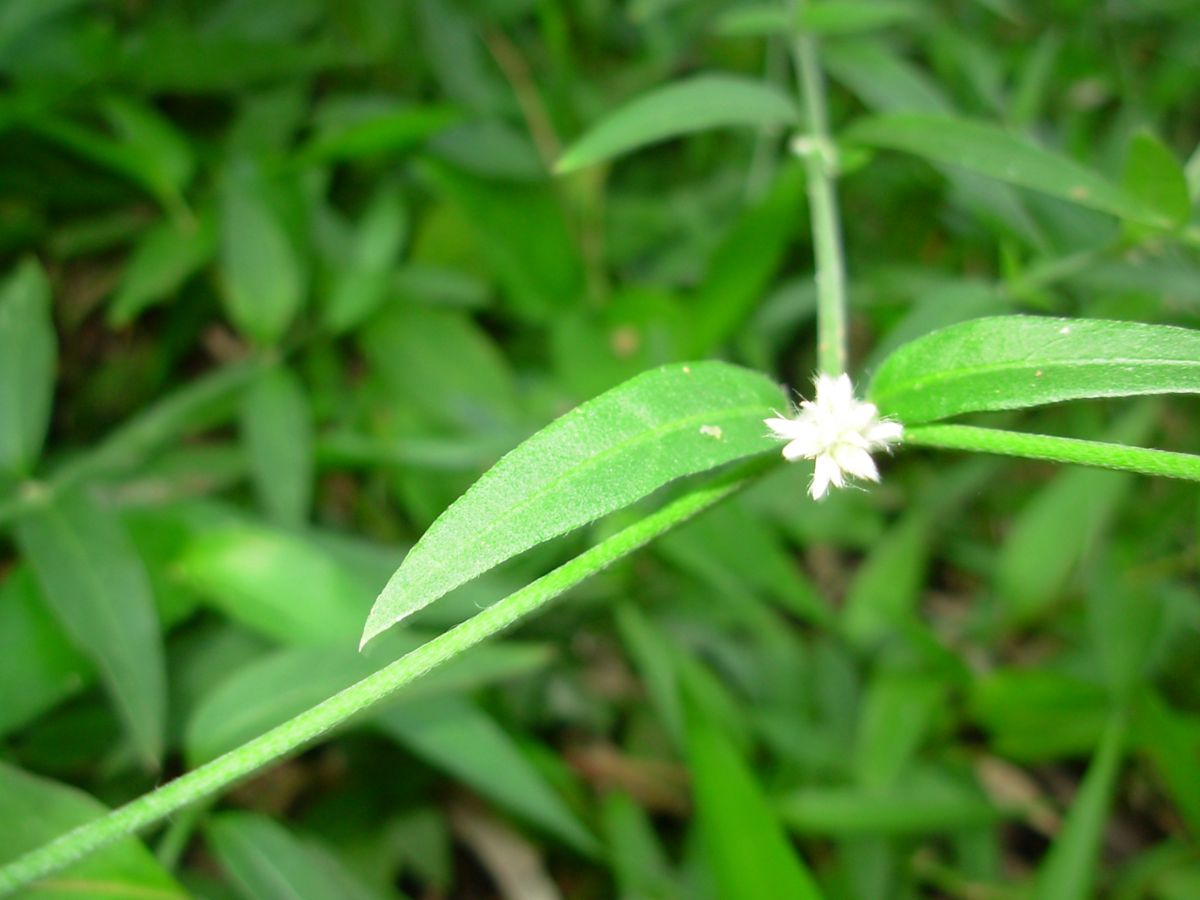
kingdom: Plantae
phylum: Tracheophyta
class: Magnoliopsida
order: Caryophyllales
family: Amaranthaceae
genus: Alternanthera
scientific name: Alternanthera laguroides
